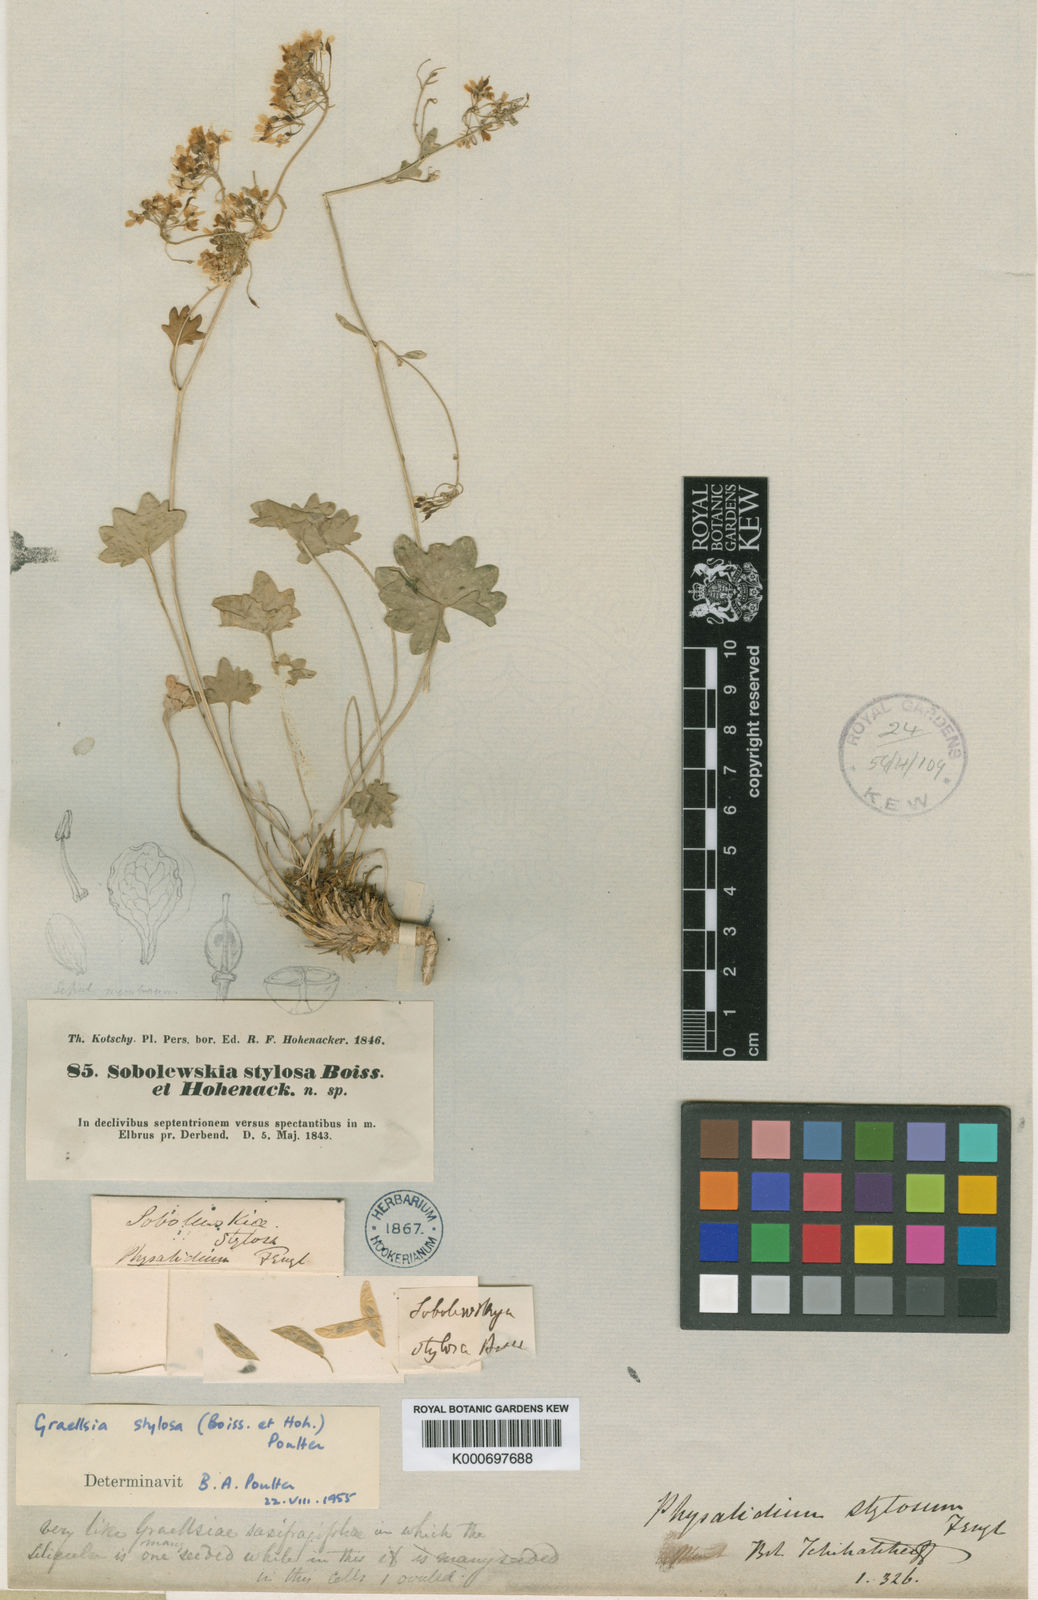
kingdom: Plantae
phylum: Tracheophyta
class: Magnoliopsida
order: Brassicales
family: Brassicaceae
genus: Graellsia
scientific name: Graellsia stylosa
